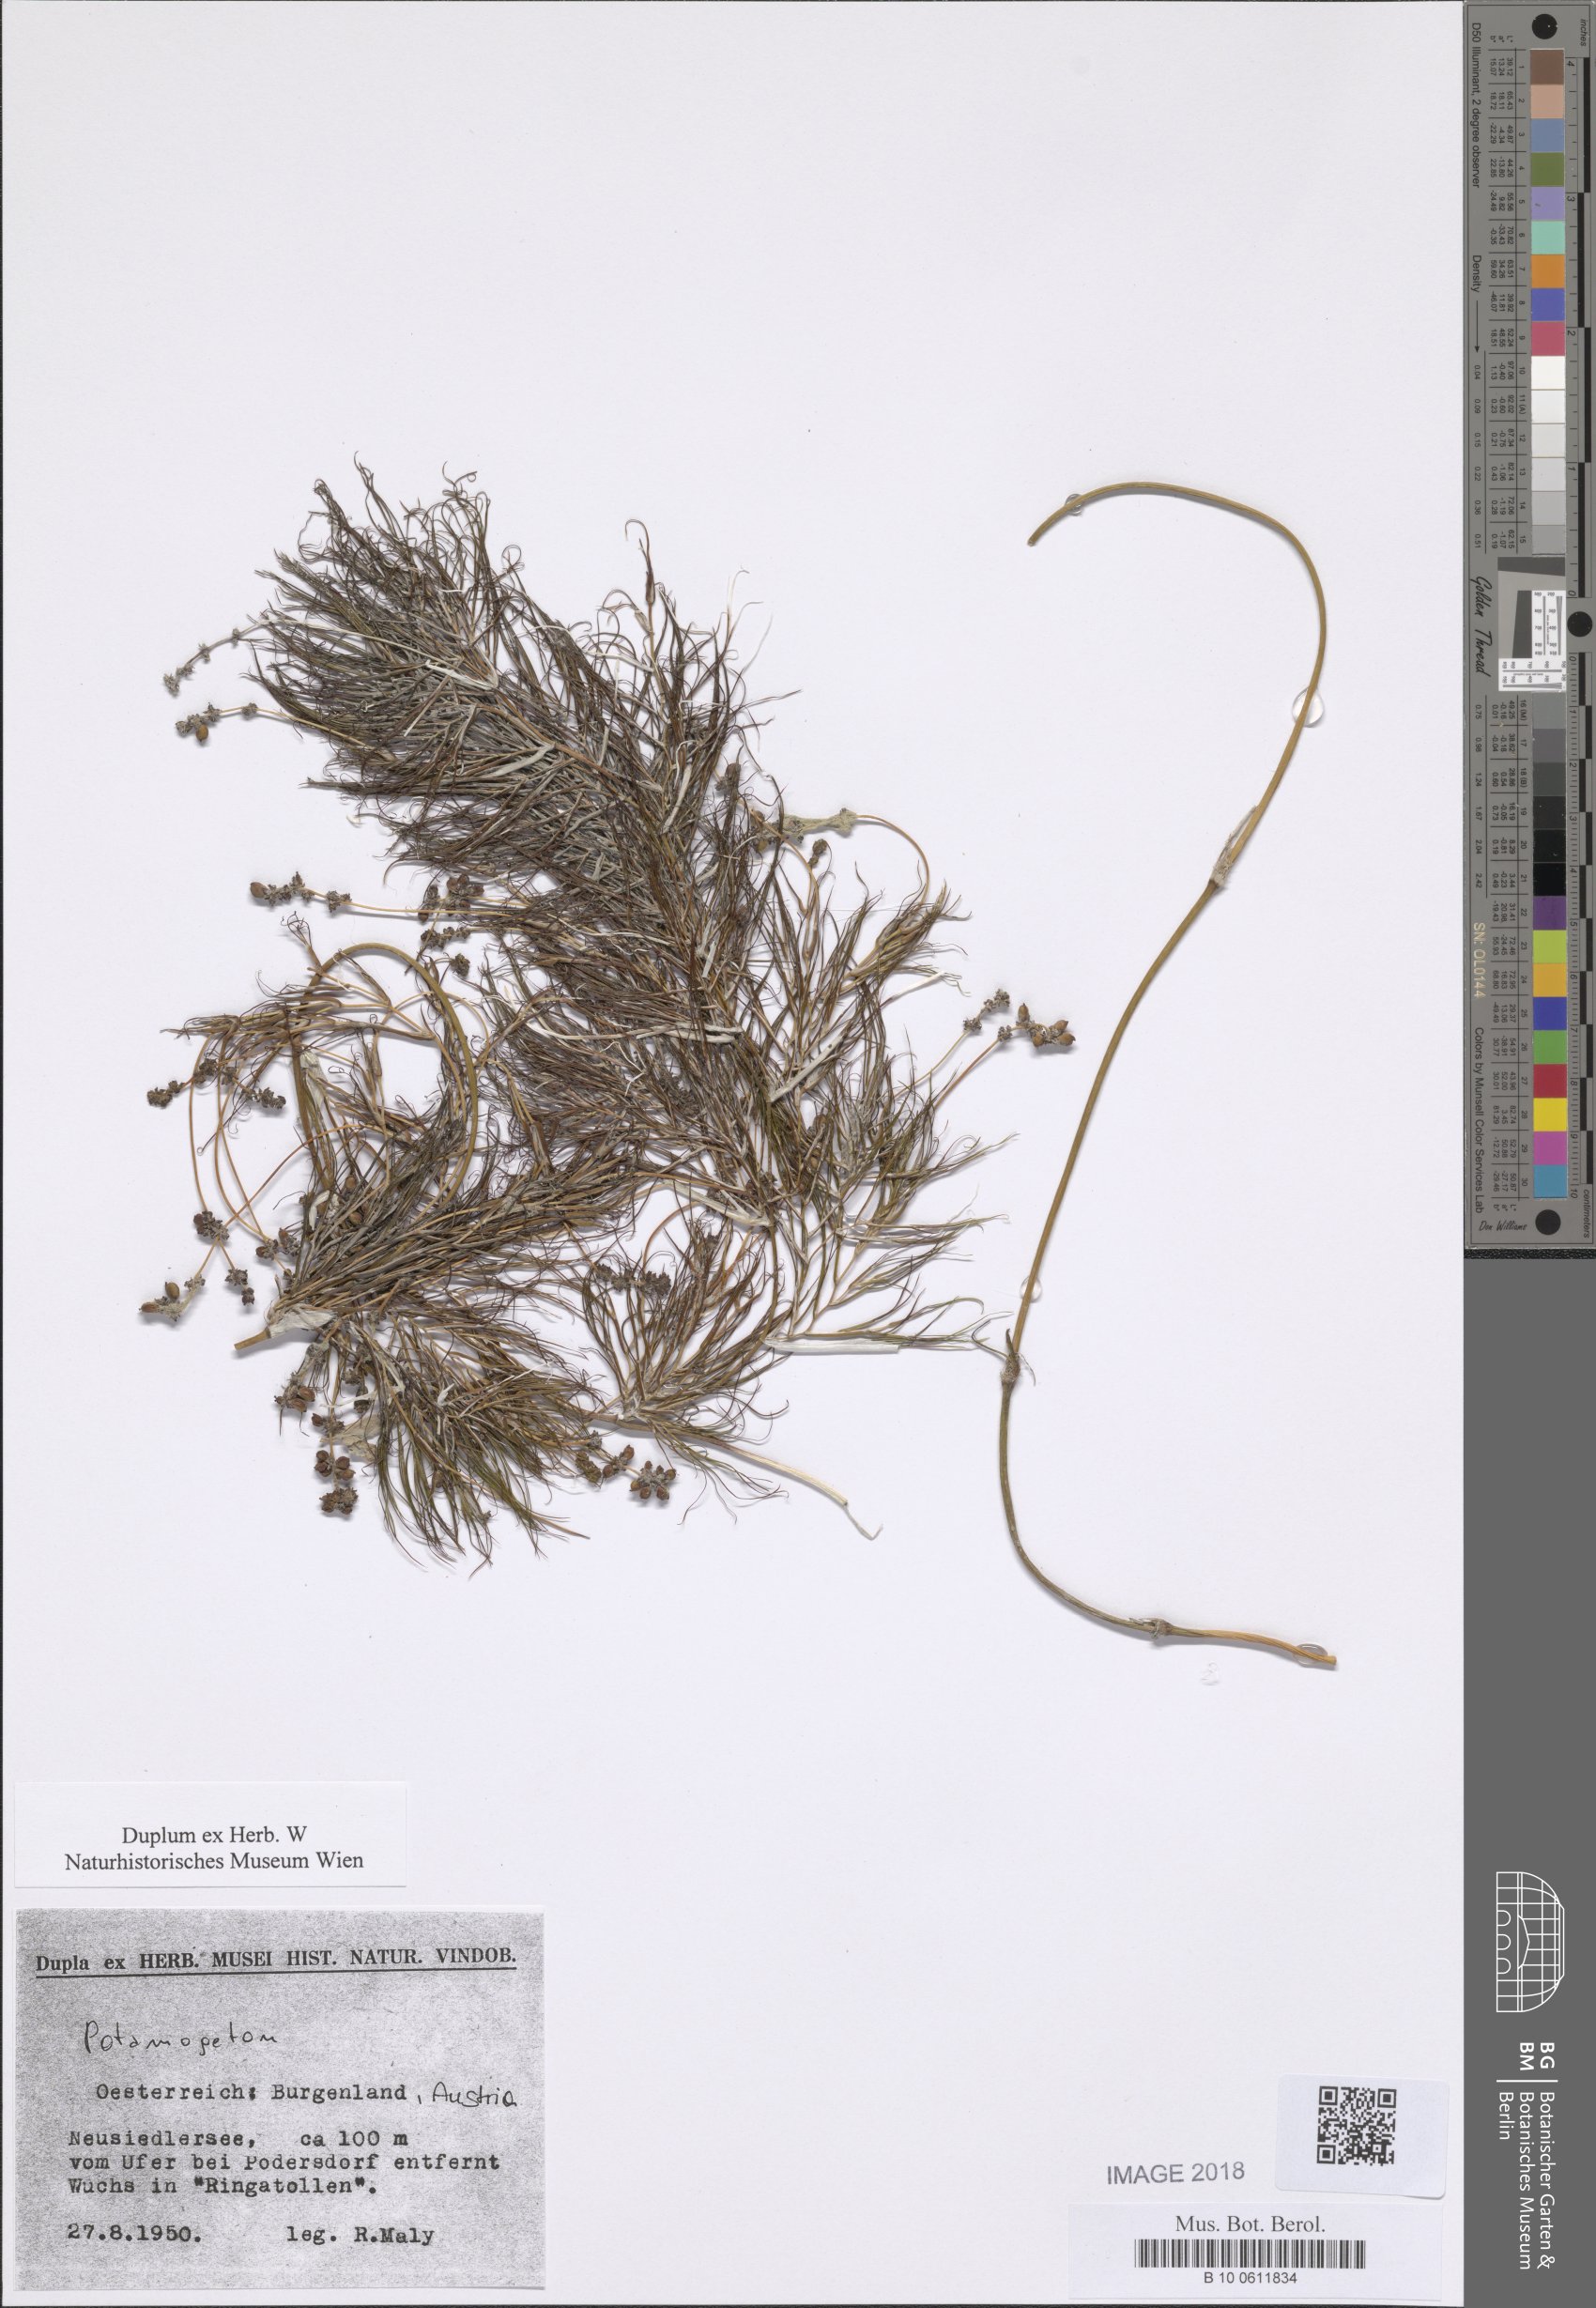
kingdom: Plantae
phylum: Tracheophyta
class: Liliopsida
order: Alismatales
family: Potamogetonaceae
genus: Stuckenia
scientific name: Stuckenia pectinata
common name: Sago pondweed
